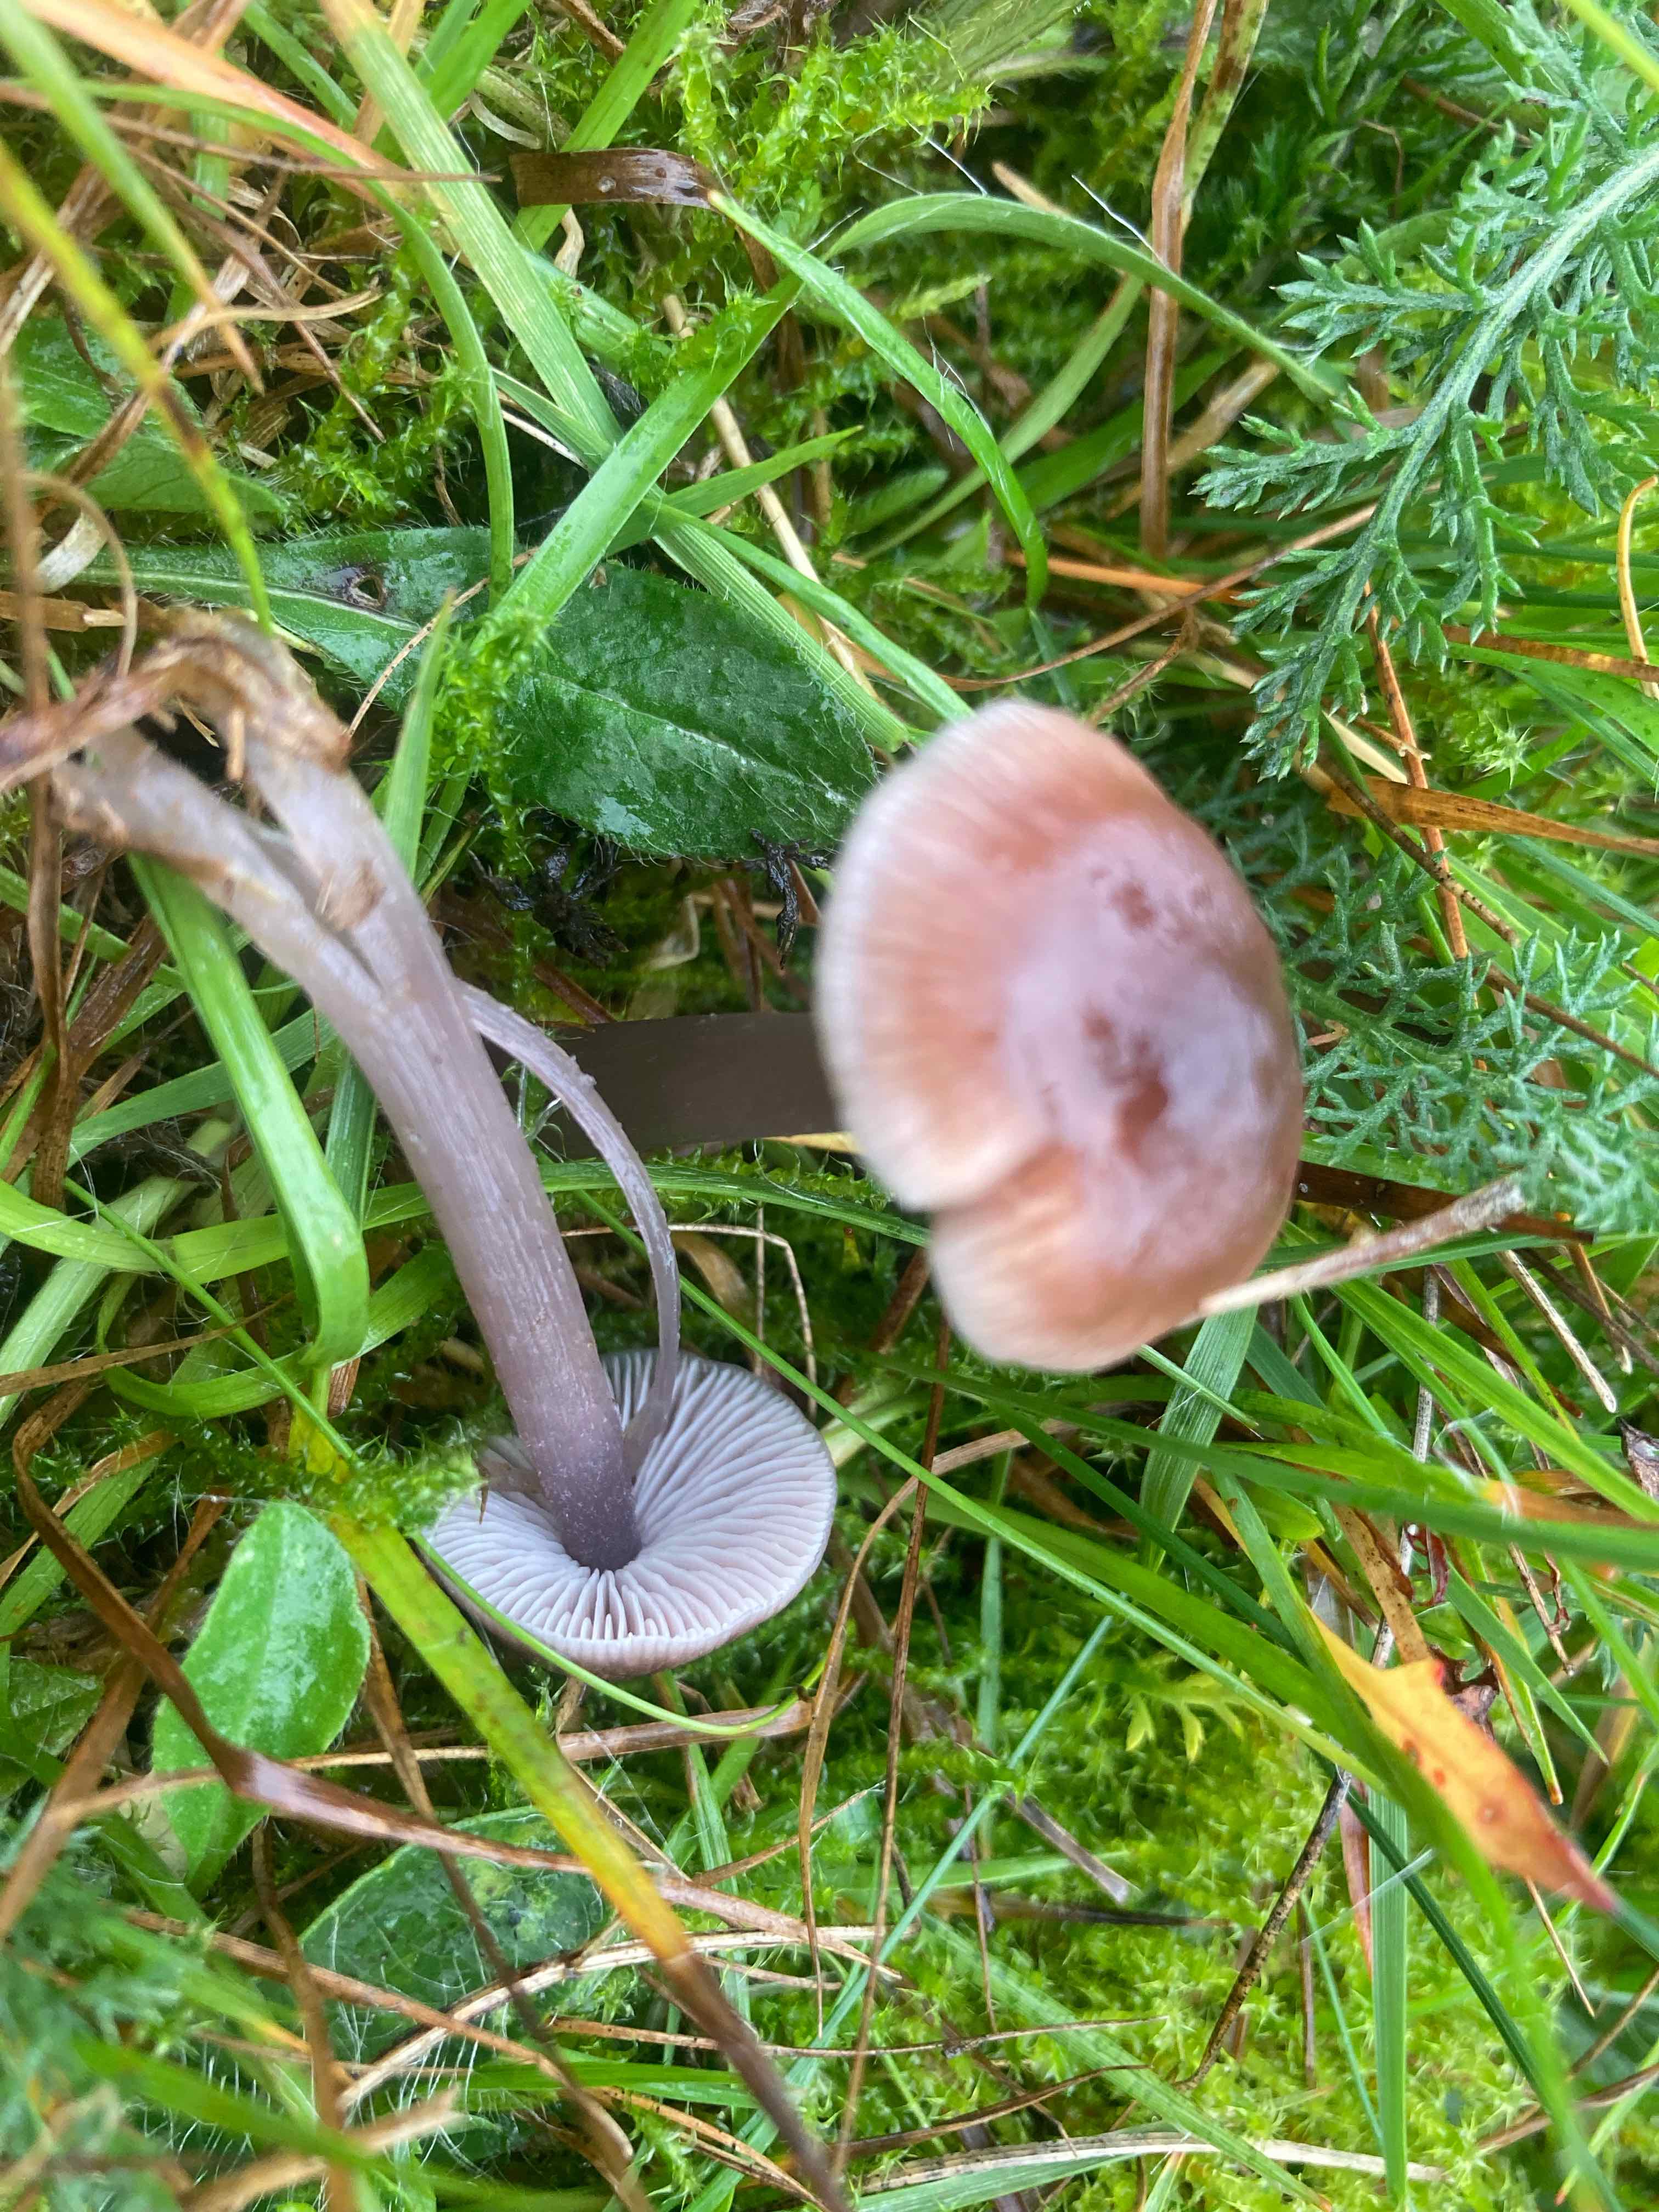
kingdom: Fungi
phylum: Basidiomycota
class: Agaricomycetes
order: Agaricales
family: Mycenaceae
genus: Mycena
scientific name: Mycena luteovariegata
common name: lillagul huesvamp
